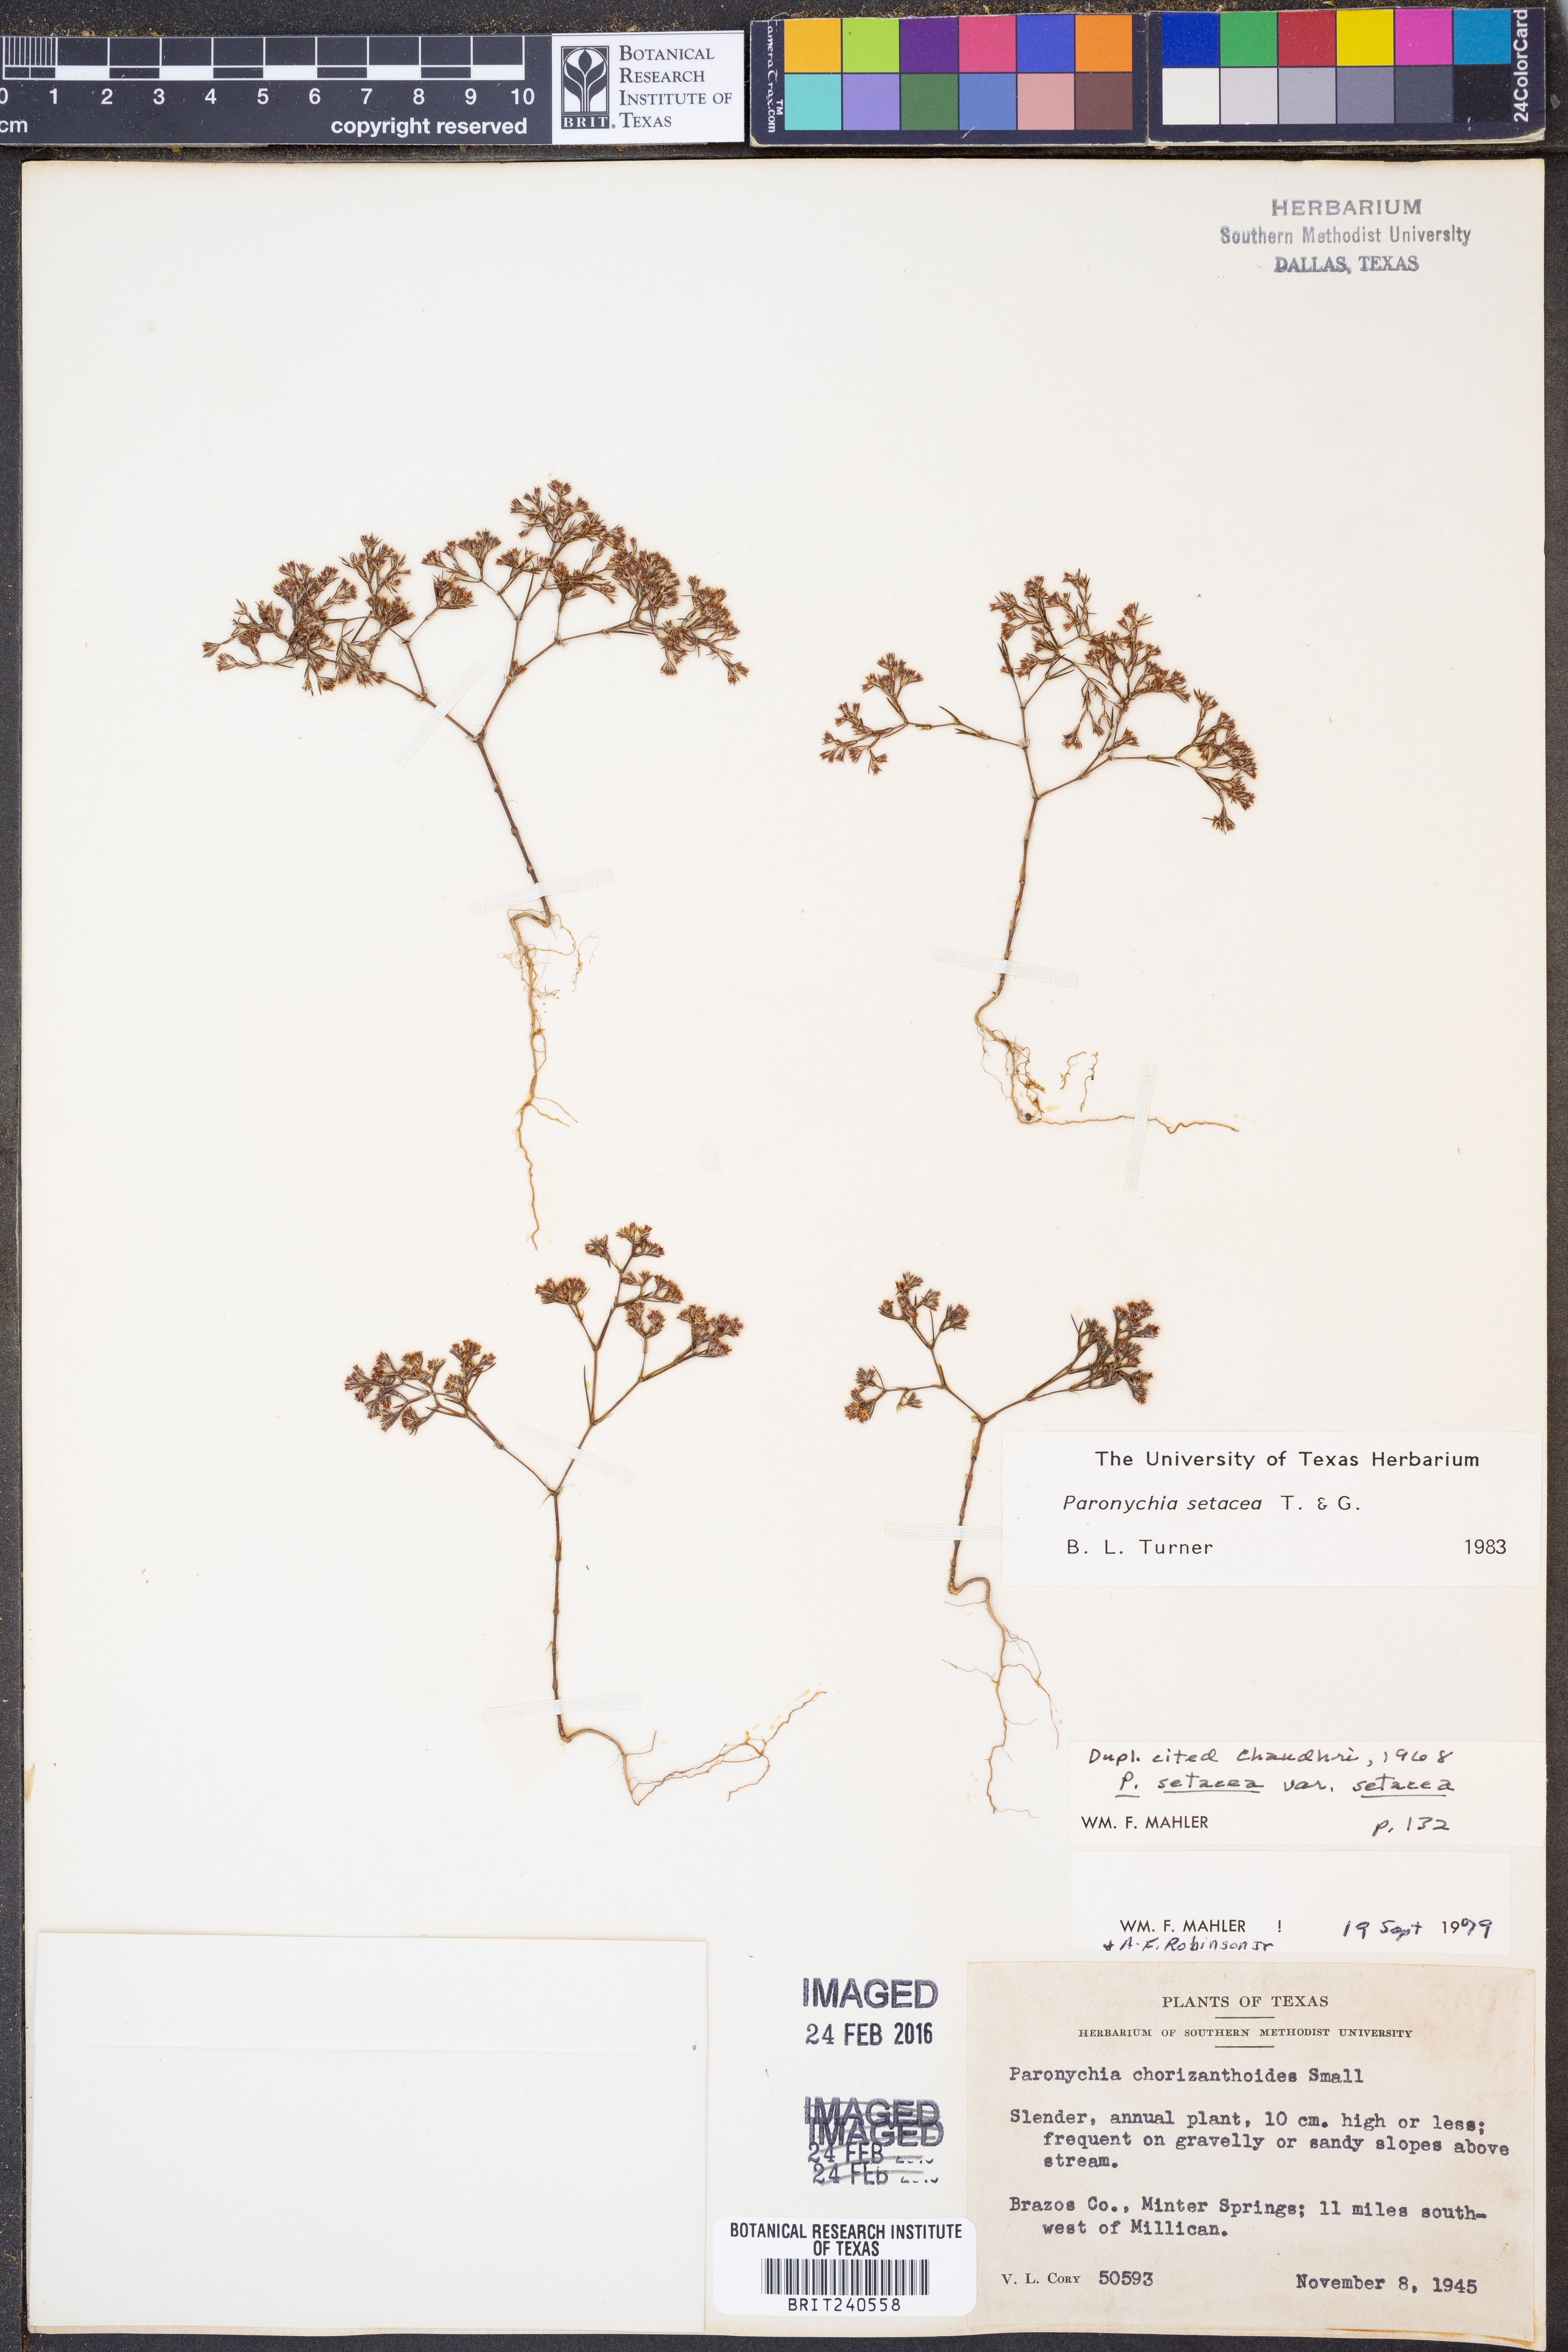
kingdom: Plantae
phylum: Tracheophyta
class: Magnoliopsida
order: Caryophyllales
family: Caryophyllaceae
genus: Paronychia
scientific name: Paronychia setacea
